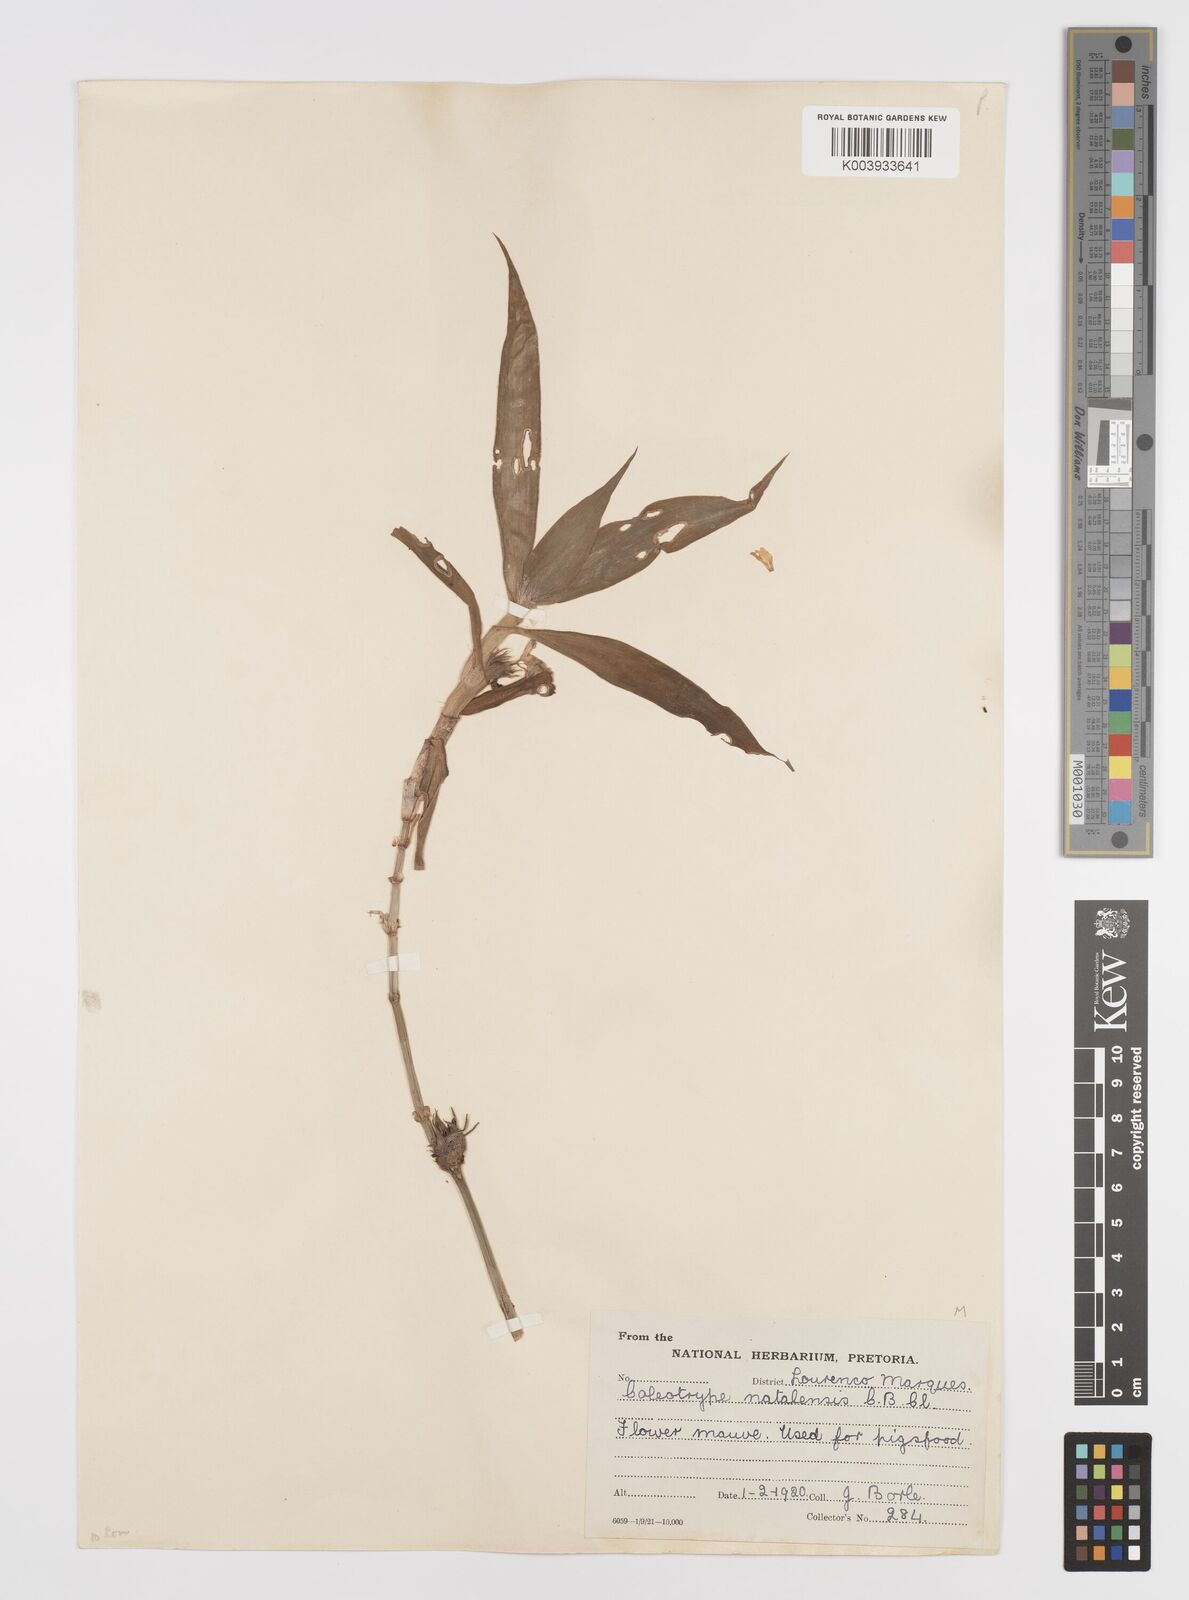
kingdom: Plantae
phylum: Tracheophyta
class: Liliopsida
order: Commelinales
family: Commelinaceae
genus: Coleotrype
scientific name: Coleotrype natalensis
